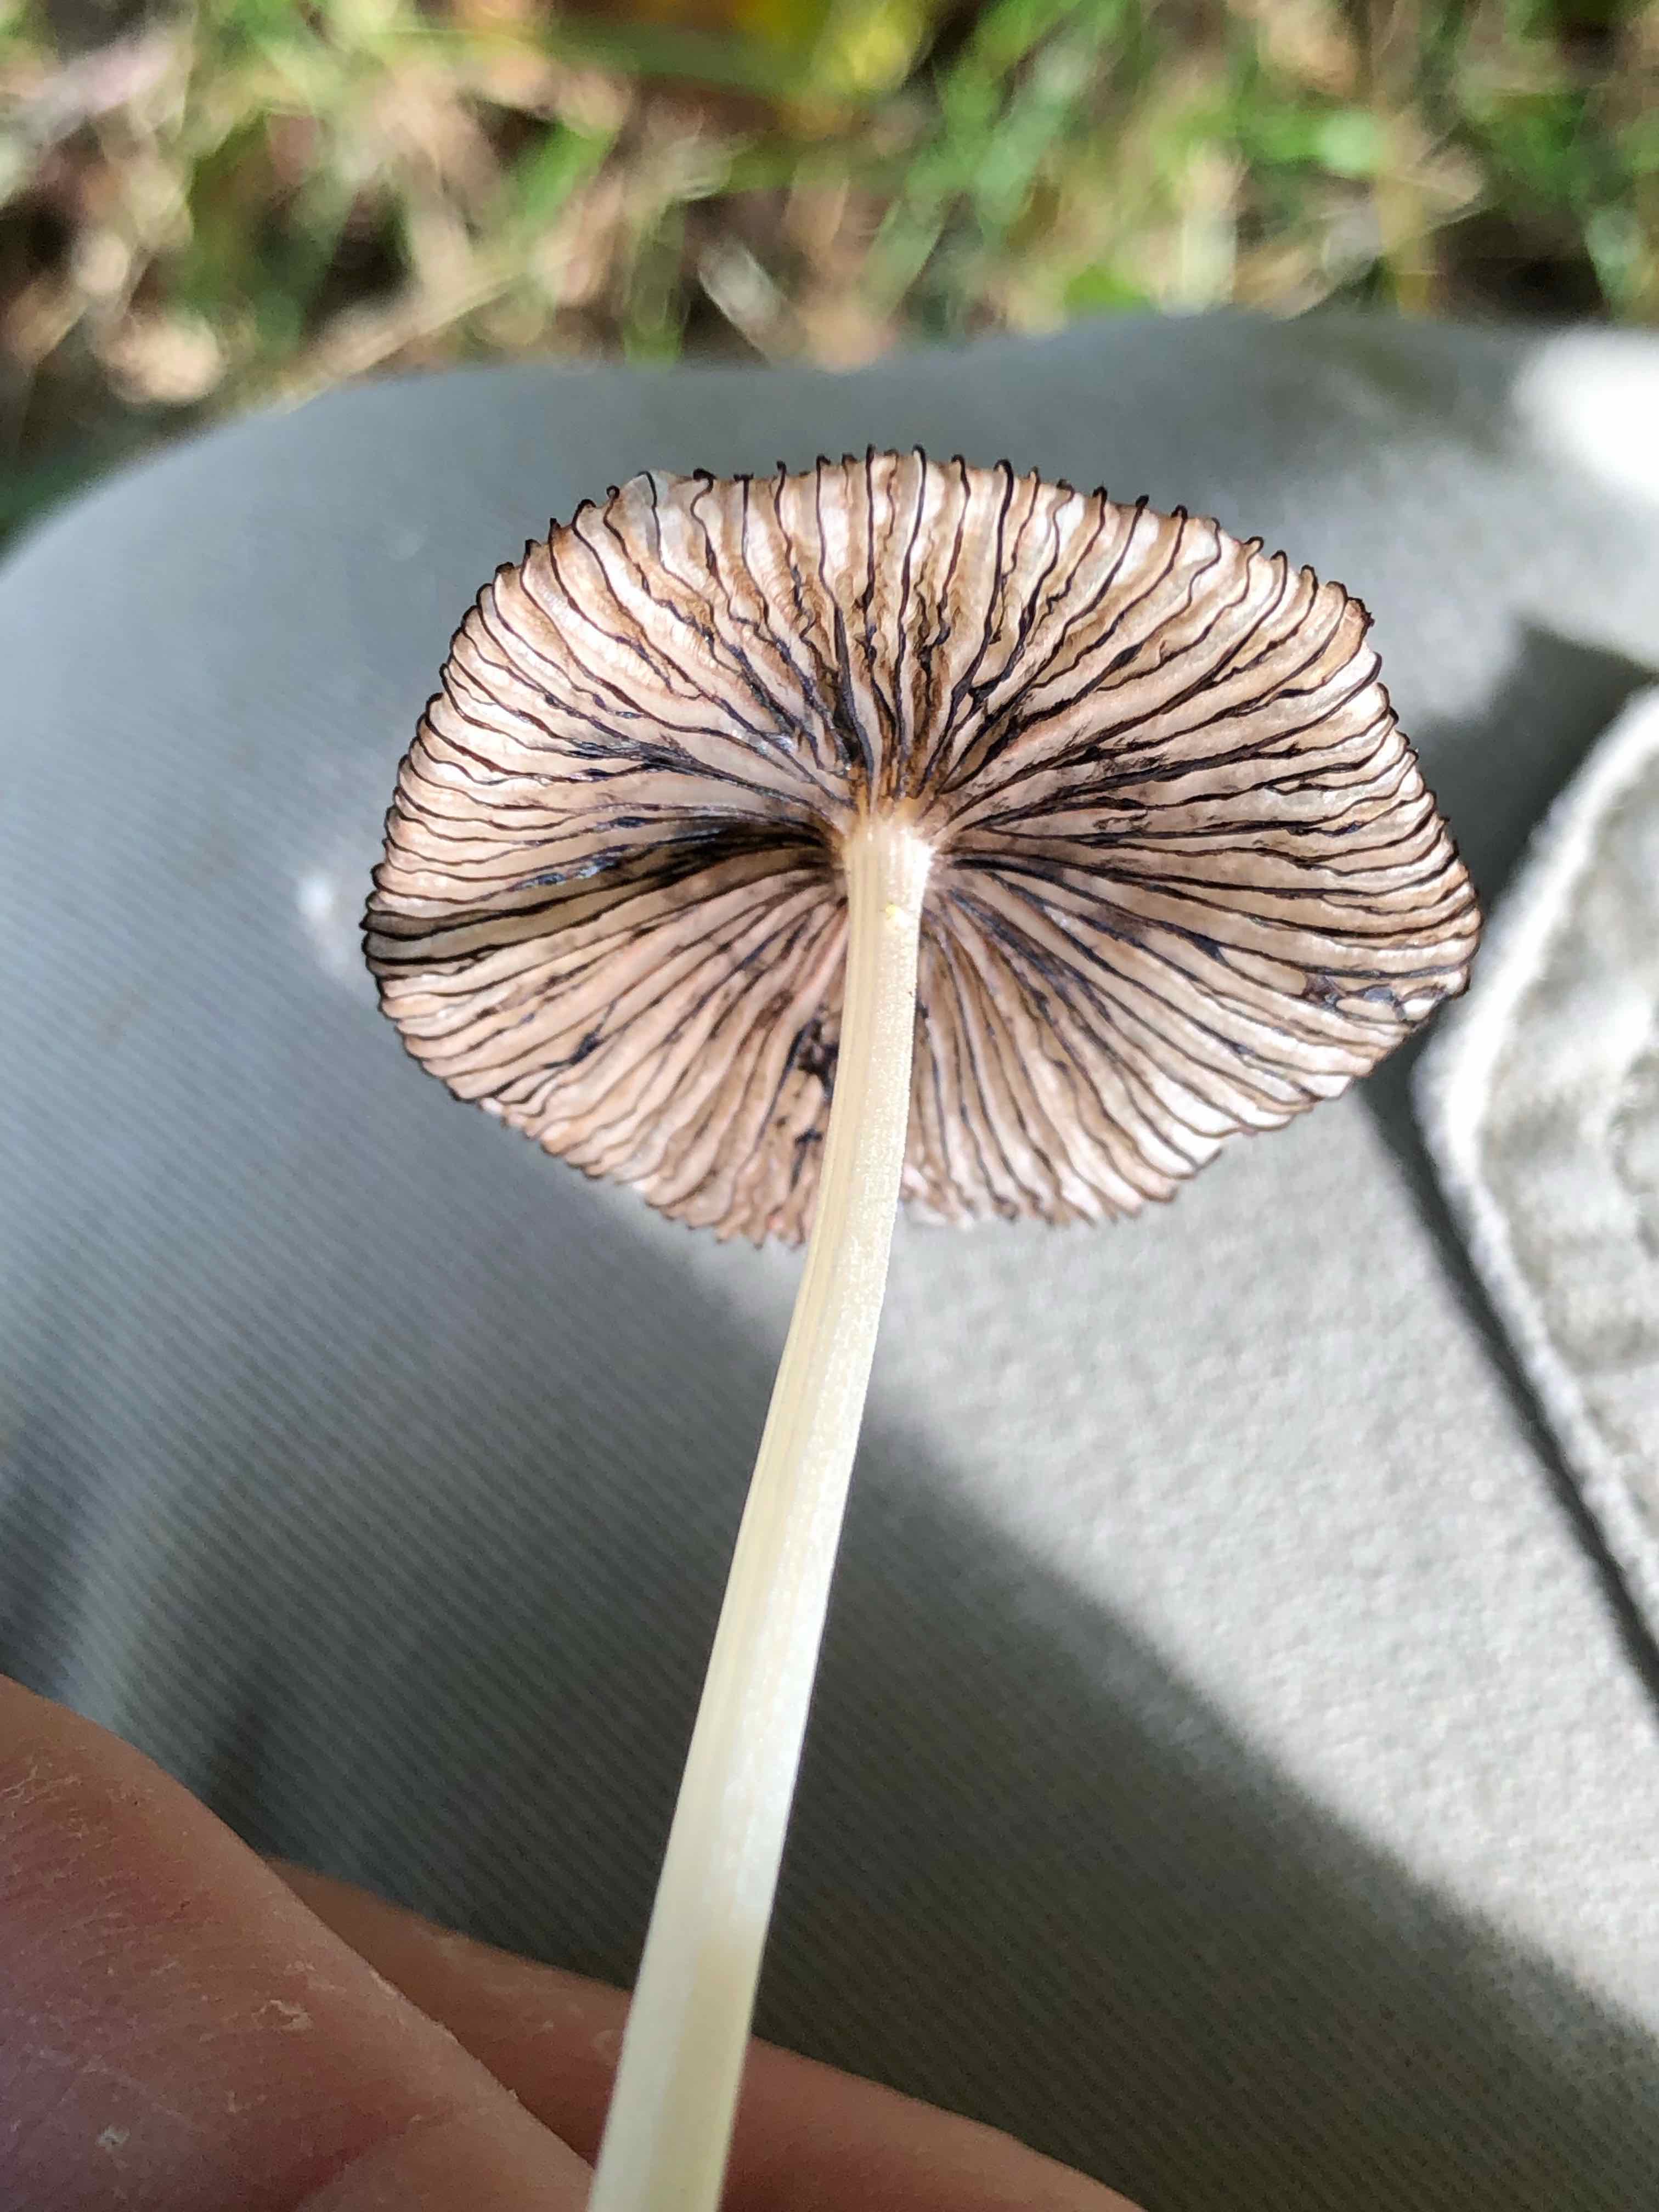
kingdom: Fungi
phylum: Basidiomycota
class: Agaricomycetes
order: Agaricales
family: Psathyrellaceae
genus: Coprinellus
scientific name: Coprinellus
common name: blækhat
